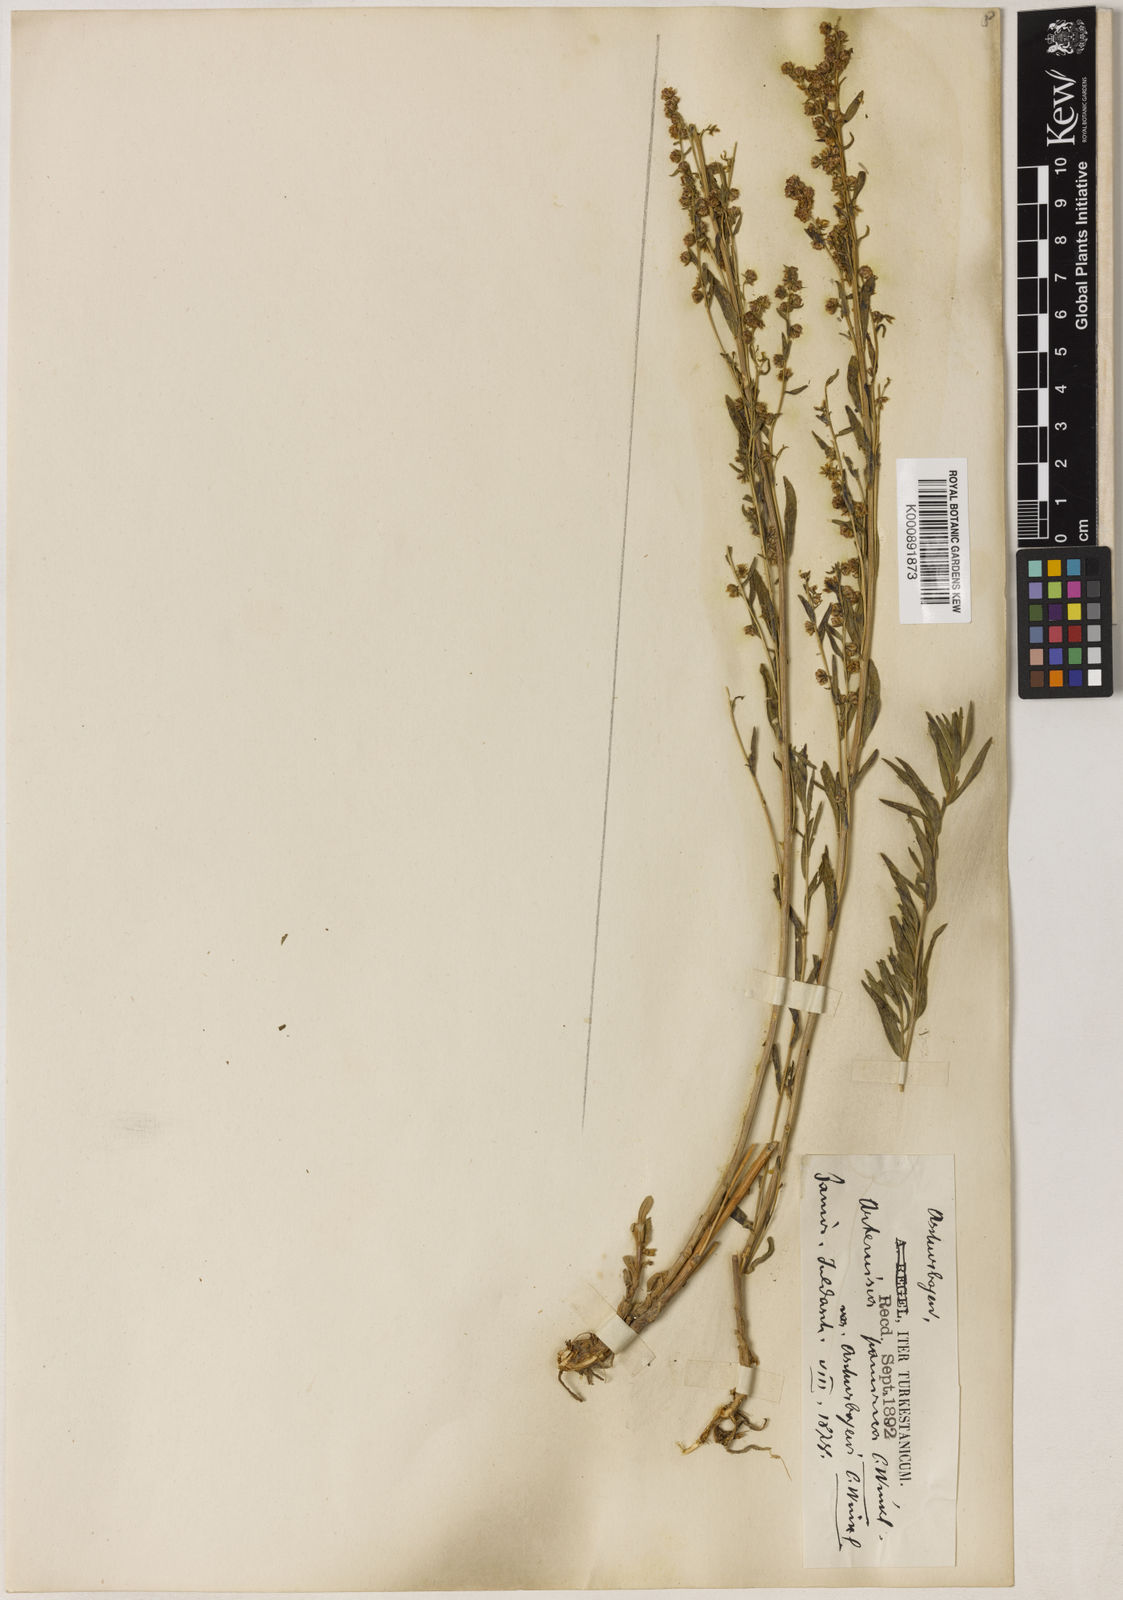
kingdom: Plantae
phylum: Tracheophyta
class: Magnoliopsida
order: Asterales
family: Asteraceae
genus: Artemisia
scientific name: Artemisia dracunculus
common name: Tarragon
